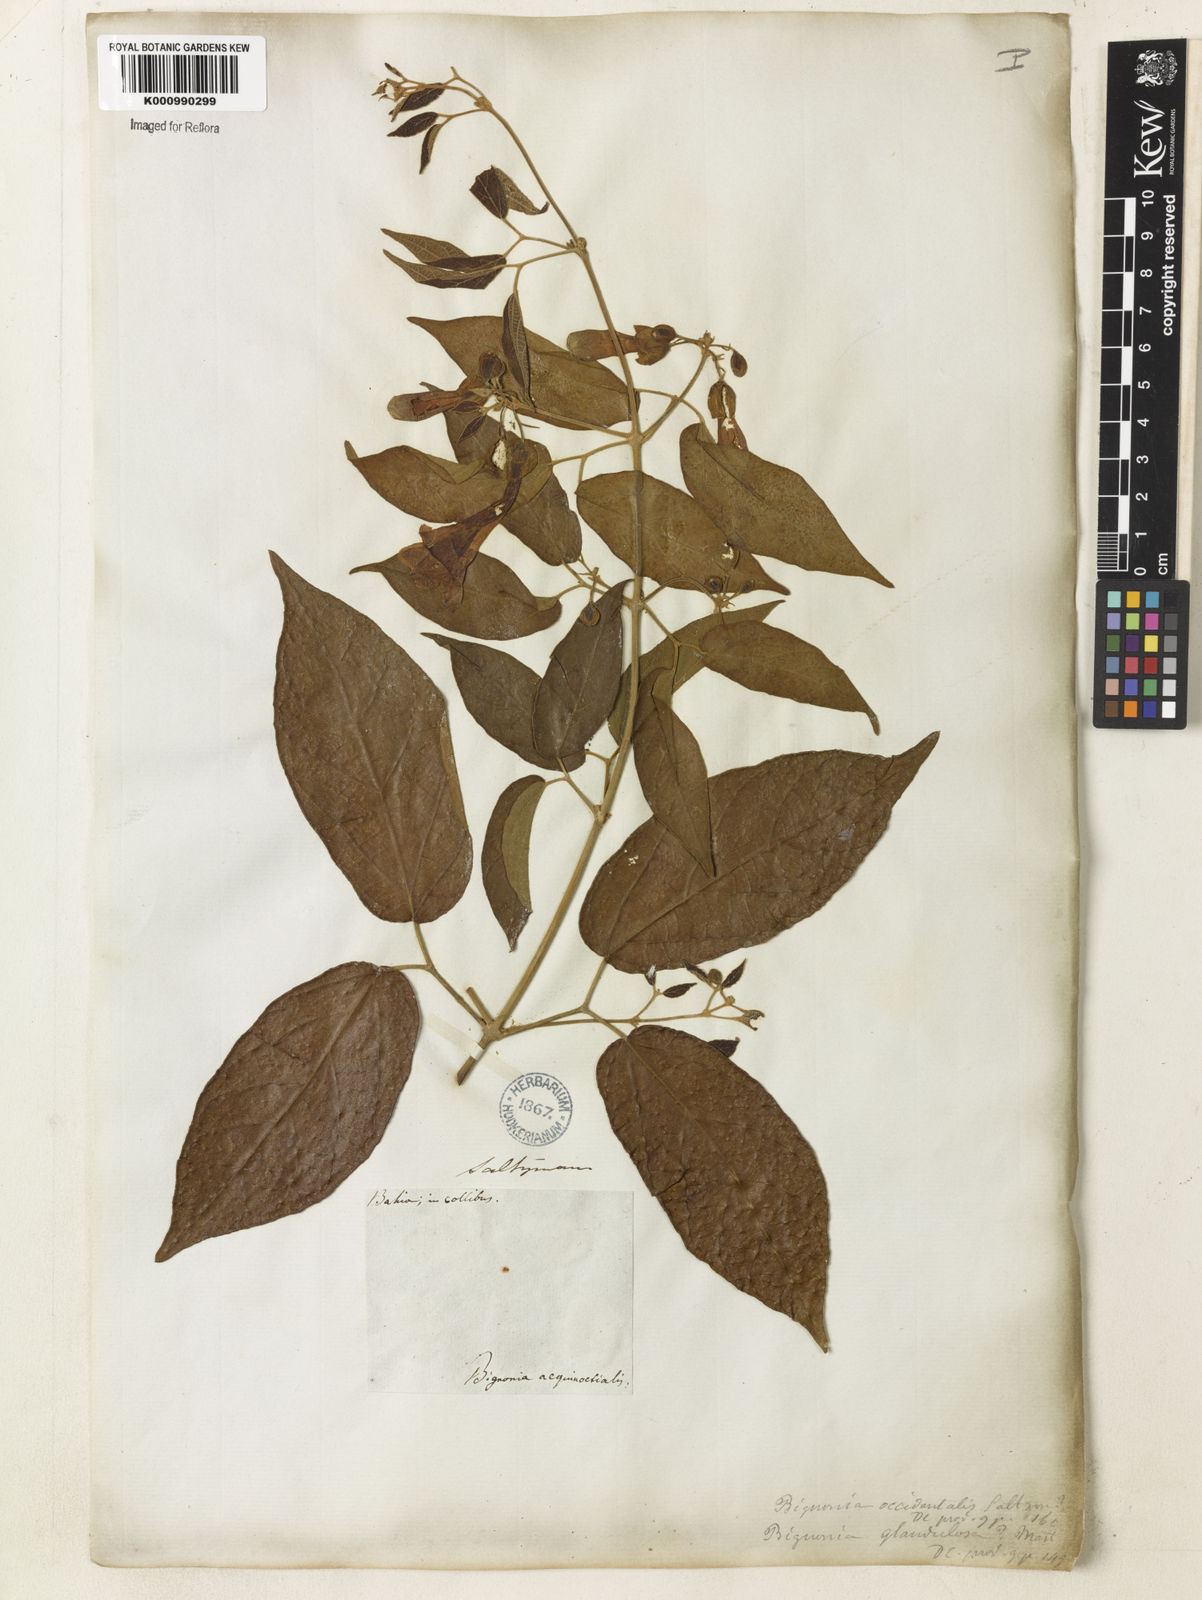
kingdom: Plantae
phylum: Tracheophyta
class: Magnoliopsida
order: Lamiales
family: Bignoniaceae
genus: Stizophyllum
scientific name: Stizophyllum perforatum
